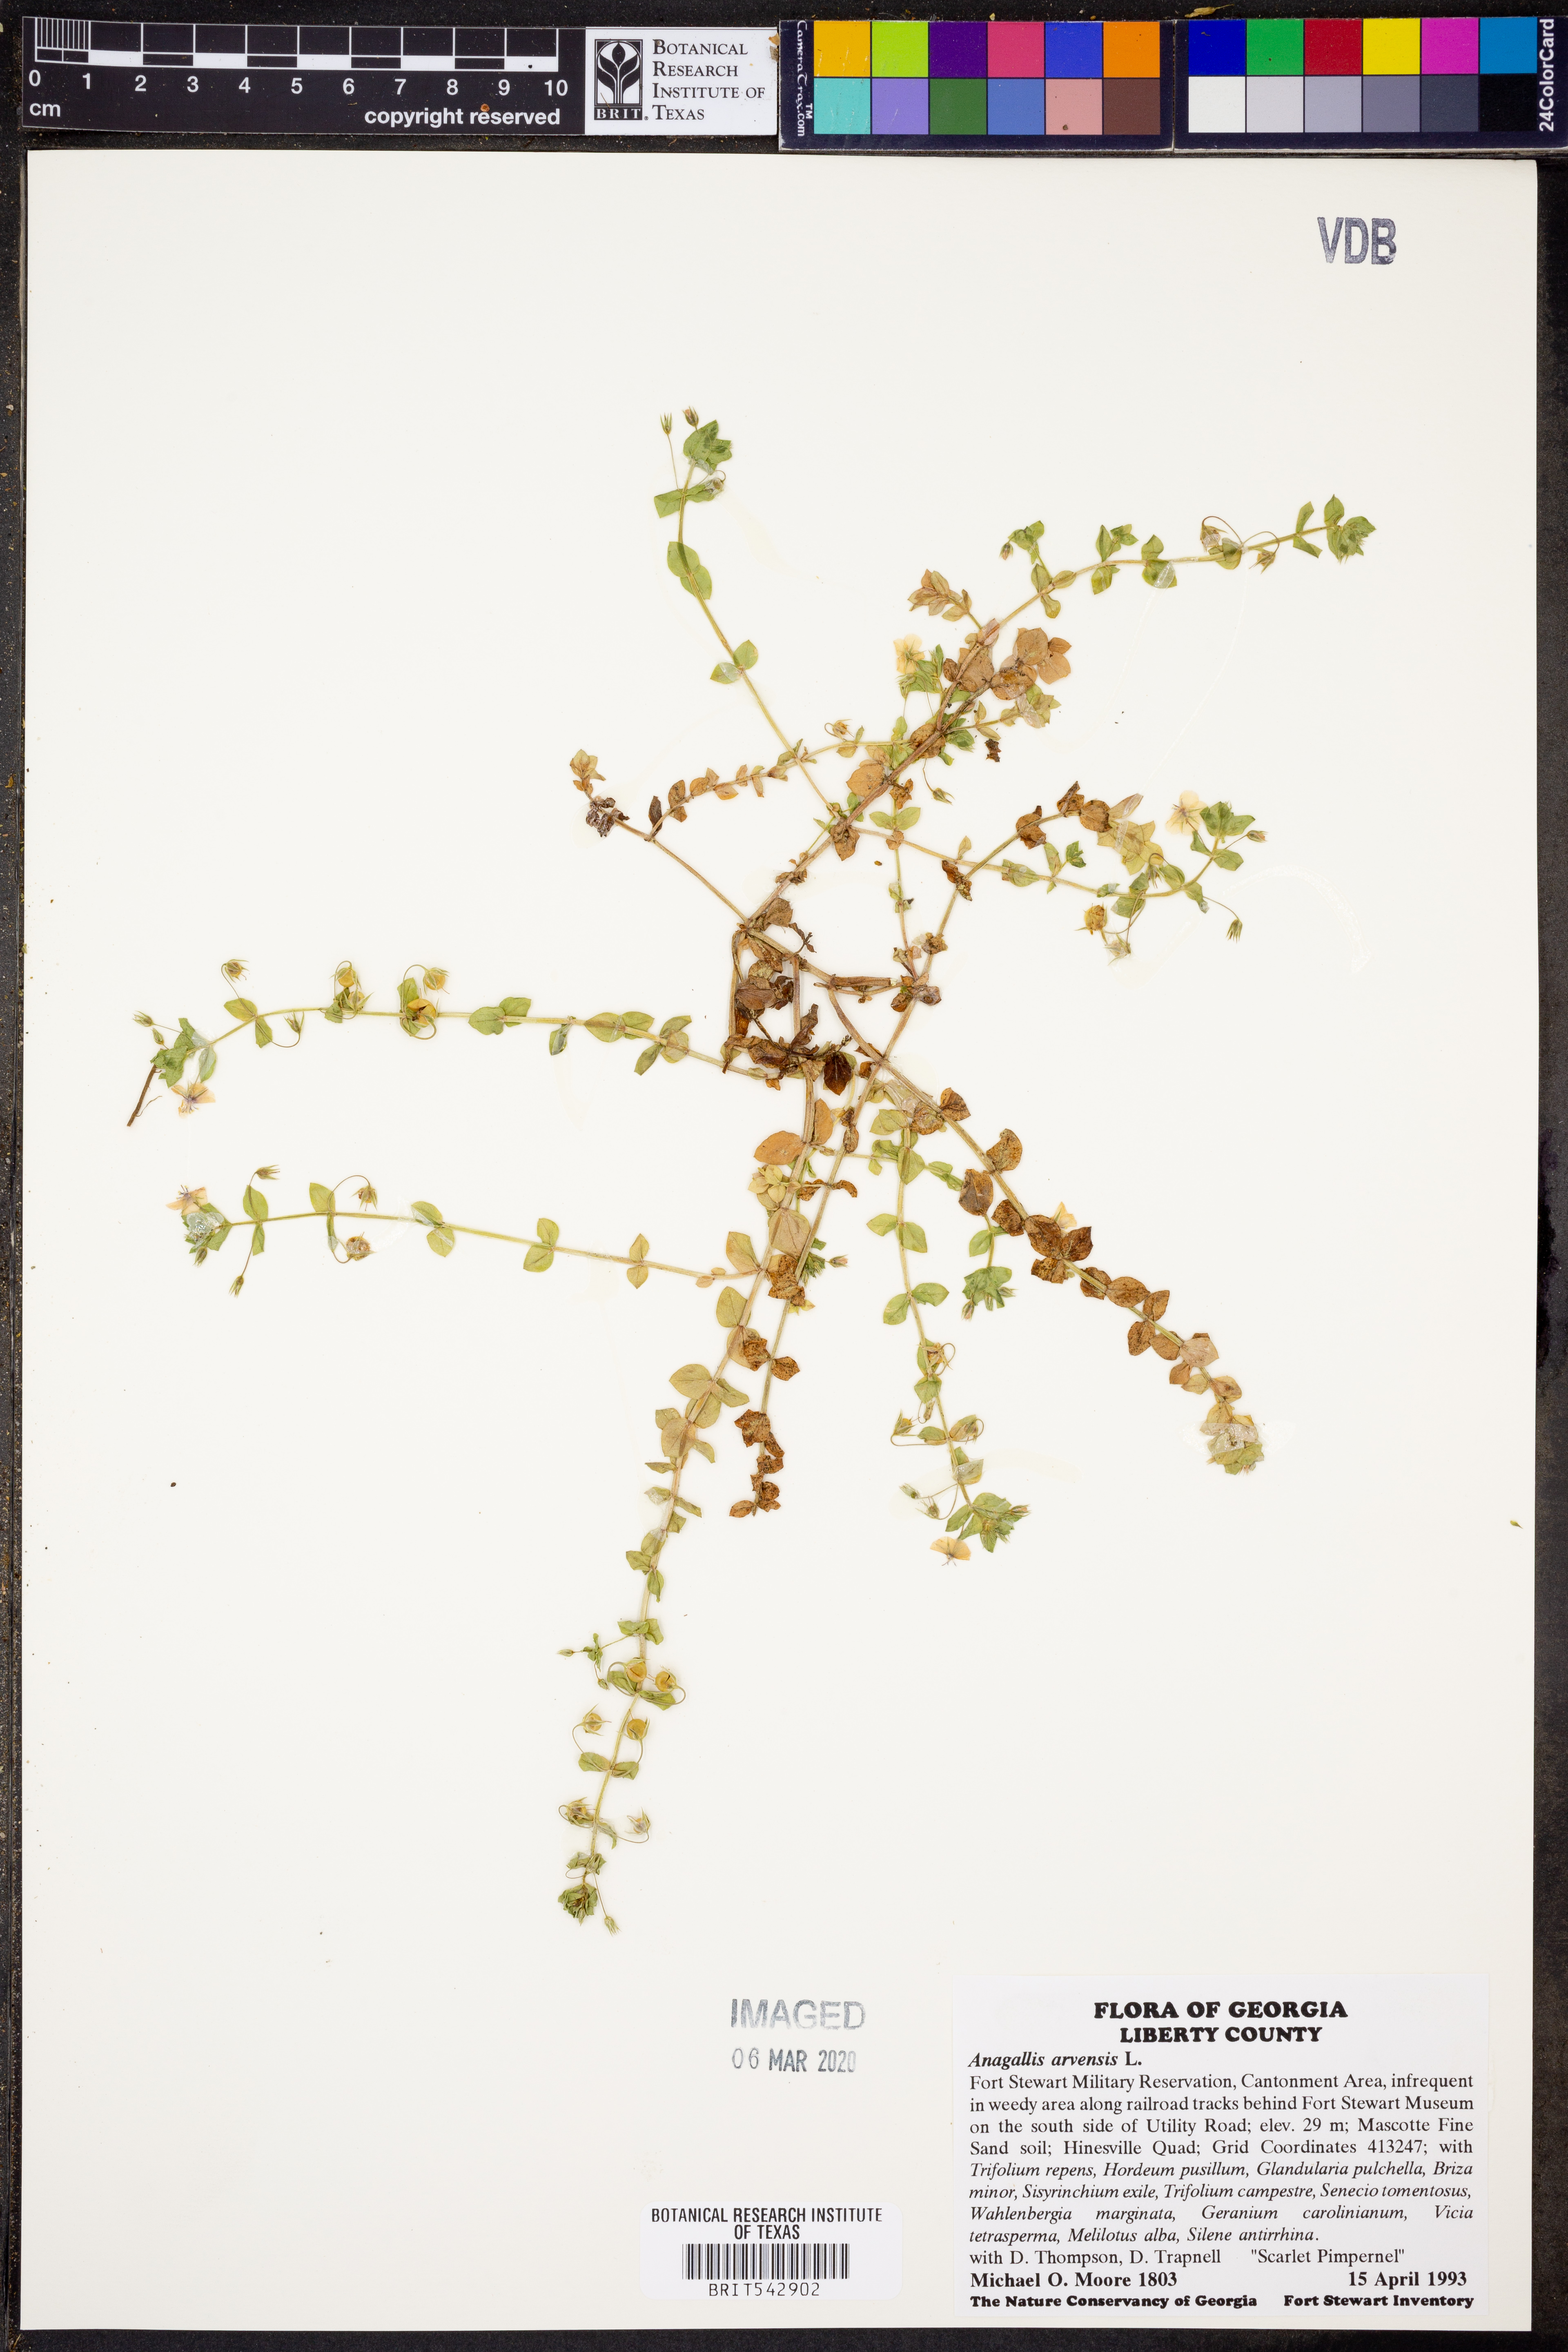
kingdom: Plantae
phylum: Tracheophyta
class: Magnoliopsida
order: Ericales
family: Primulaceae
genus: Lysimachia
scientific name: Lysimachia arvensis
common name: Scarlet pimpernel
